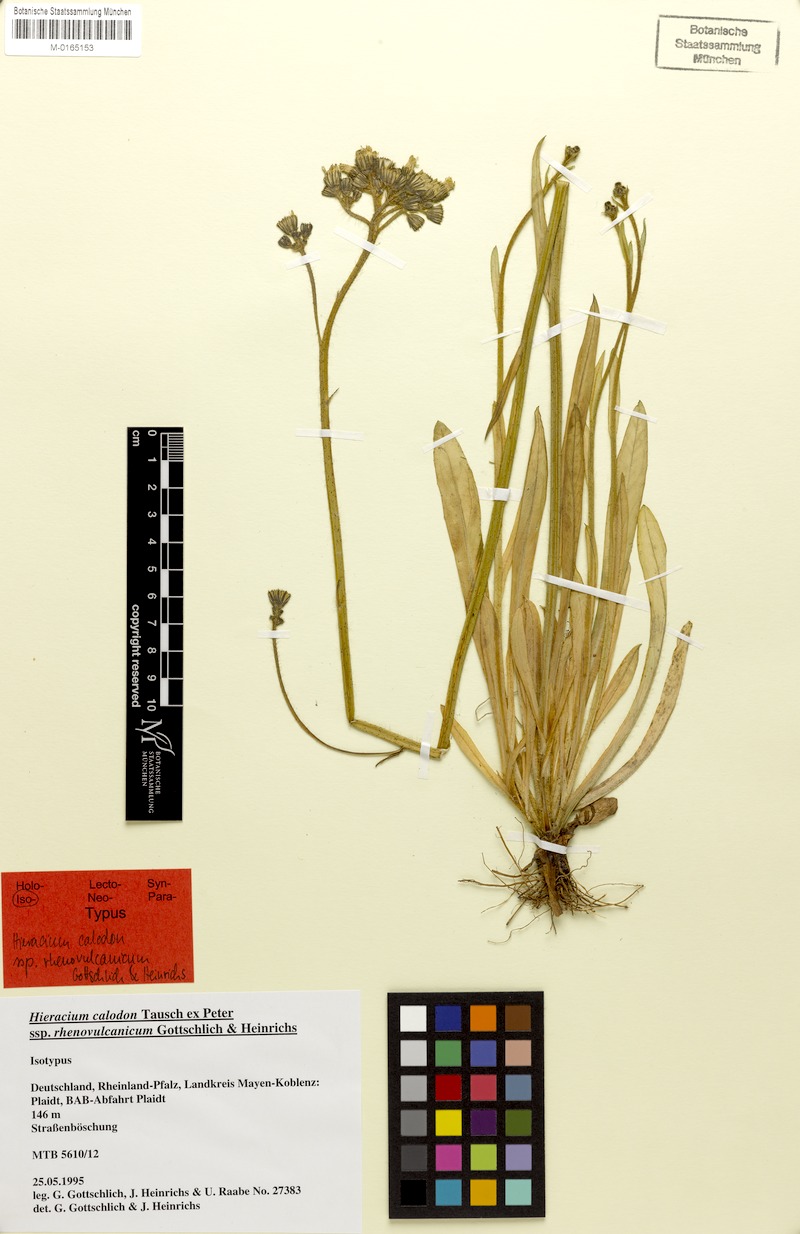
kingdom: Plantae
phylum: Tracheophyta
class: Magnoliopsida
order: Asterales
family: Asteraceae
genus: Pilosella
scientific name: Pilosella calodon
